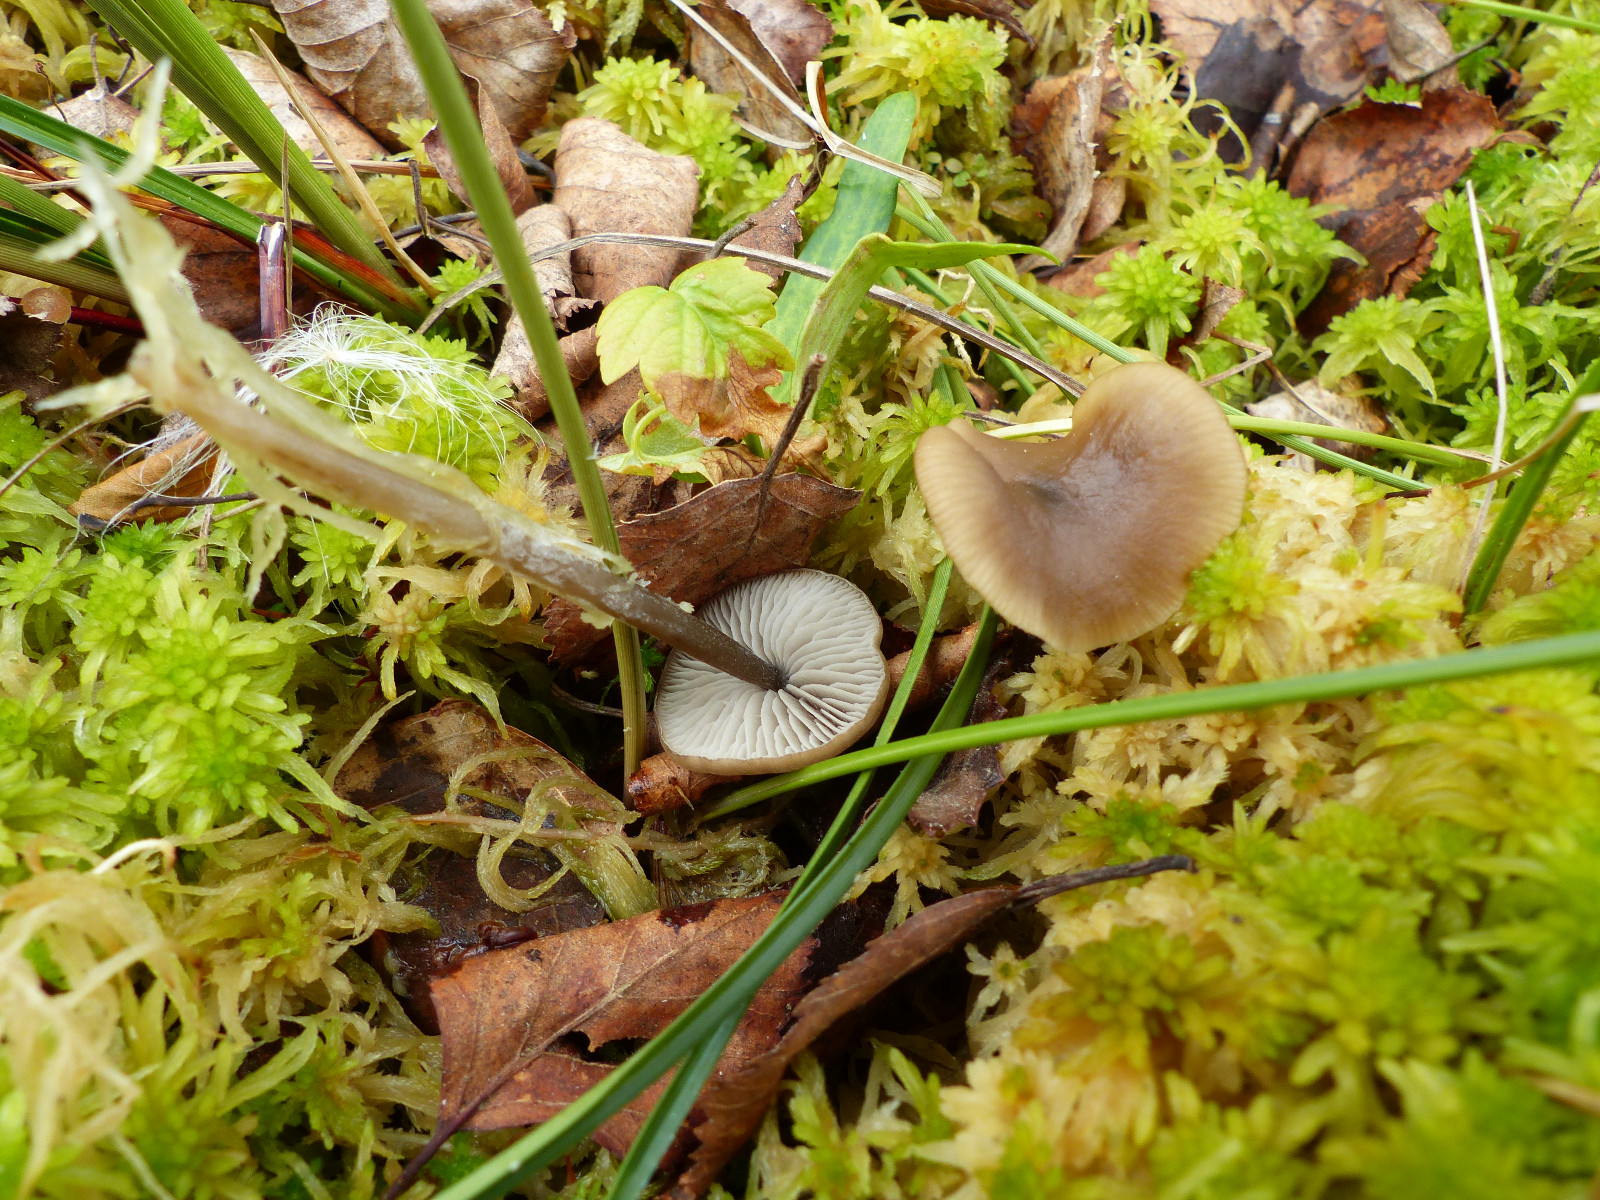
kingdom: Fungi
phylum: Basidiomycota
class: Agaricomycetes
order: Agaricales
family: Lyophyllaceae
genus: Sphagnurus
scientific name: Sphagnurus paluster
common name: tørvemos-gråblad
